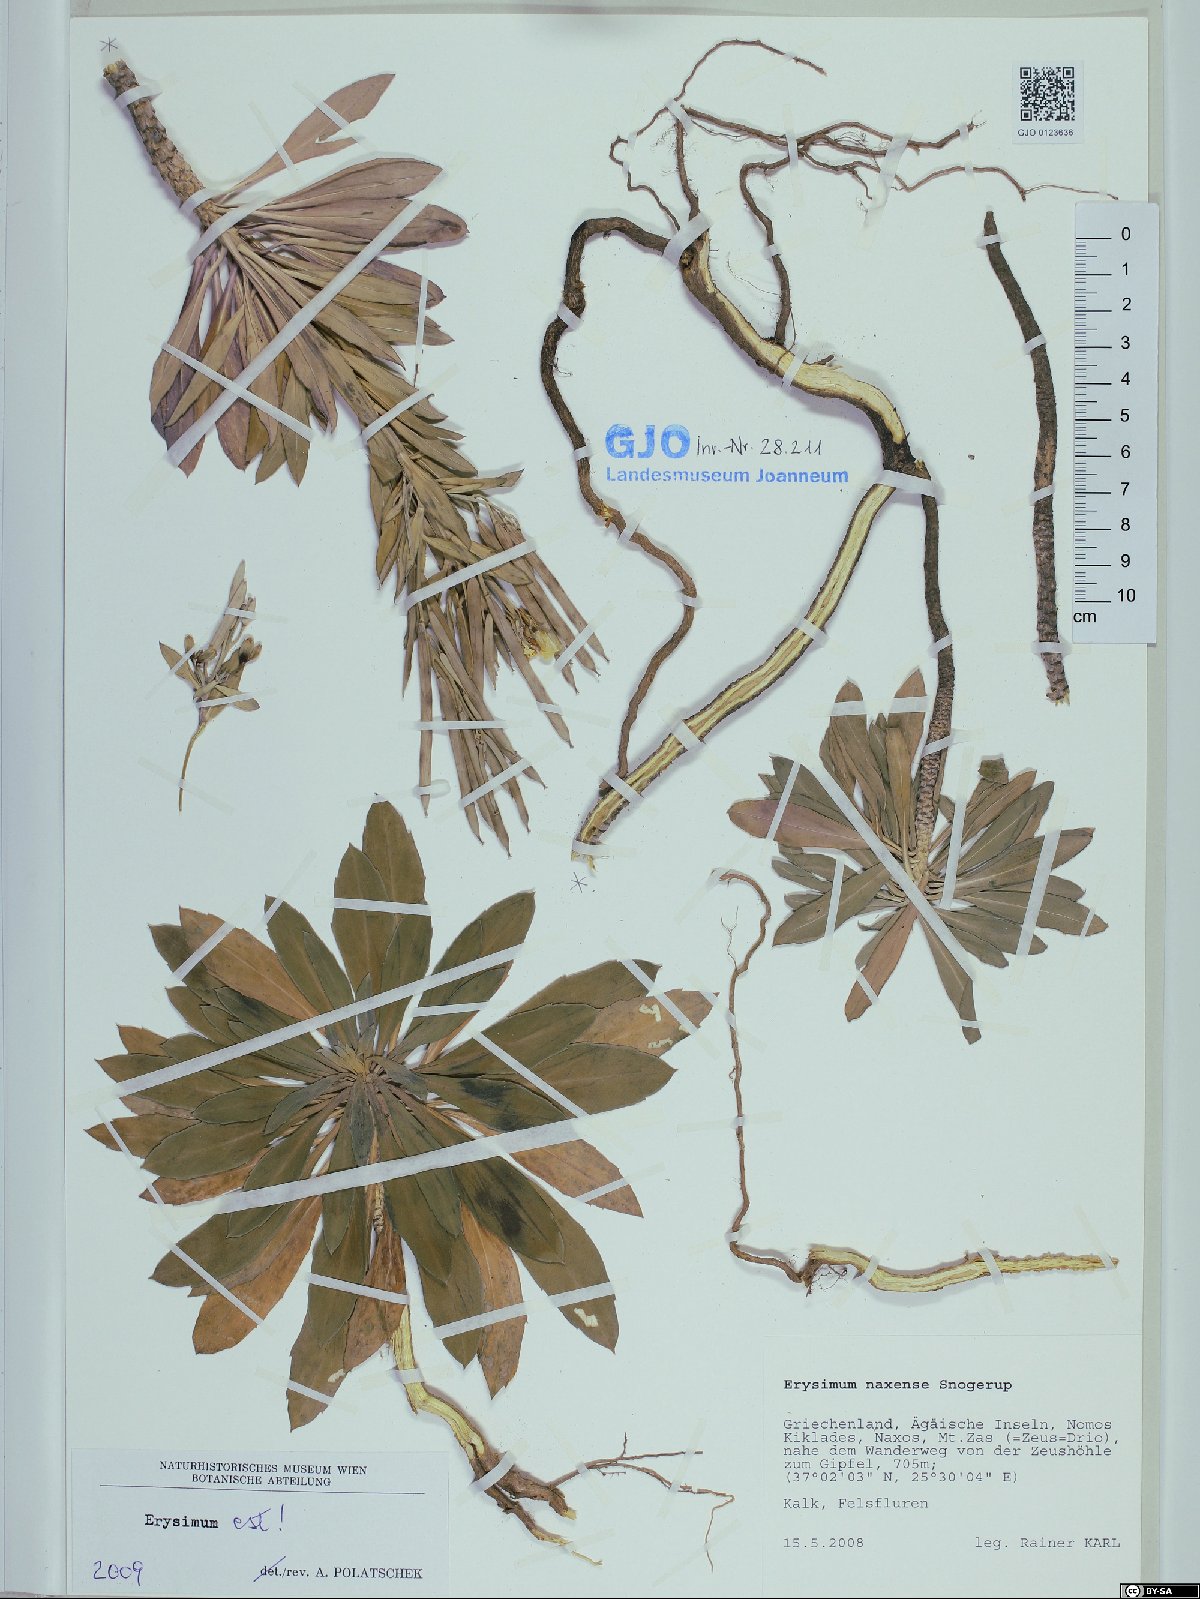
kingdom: Plantae
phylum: Tracheophyta
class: Magnoliopsida
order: Brassicales
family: Brassicaceae
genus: Erysimum
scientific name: Erysimum naxense
